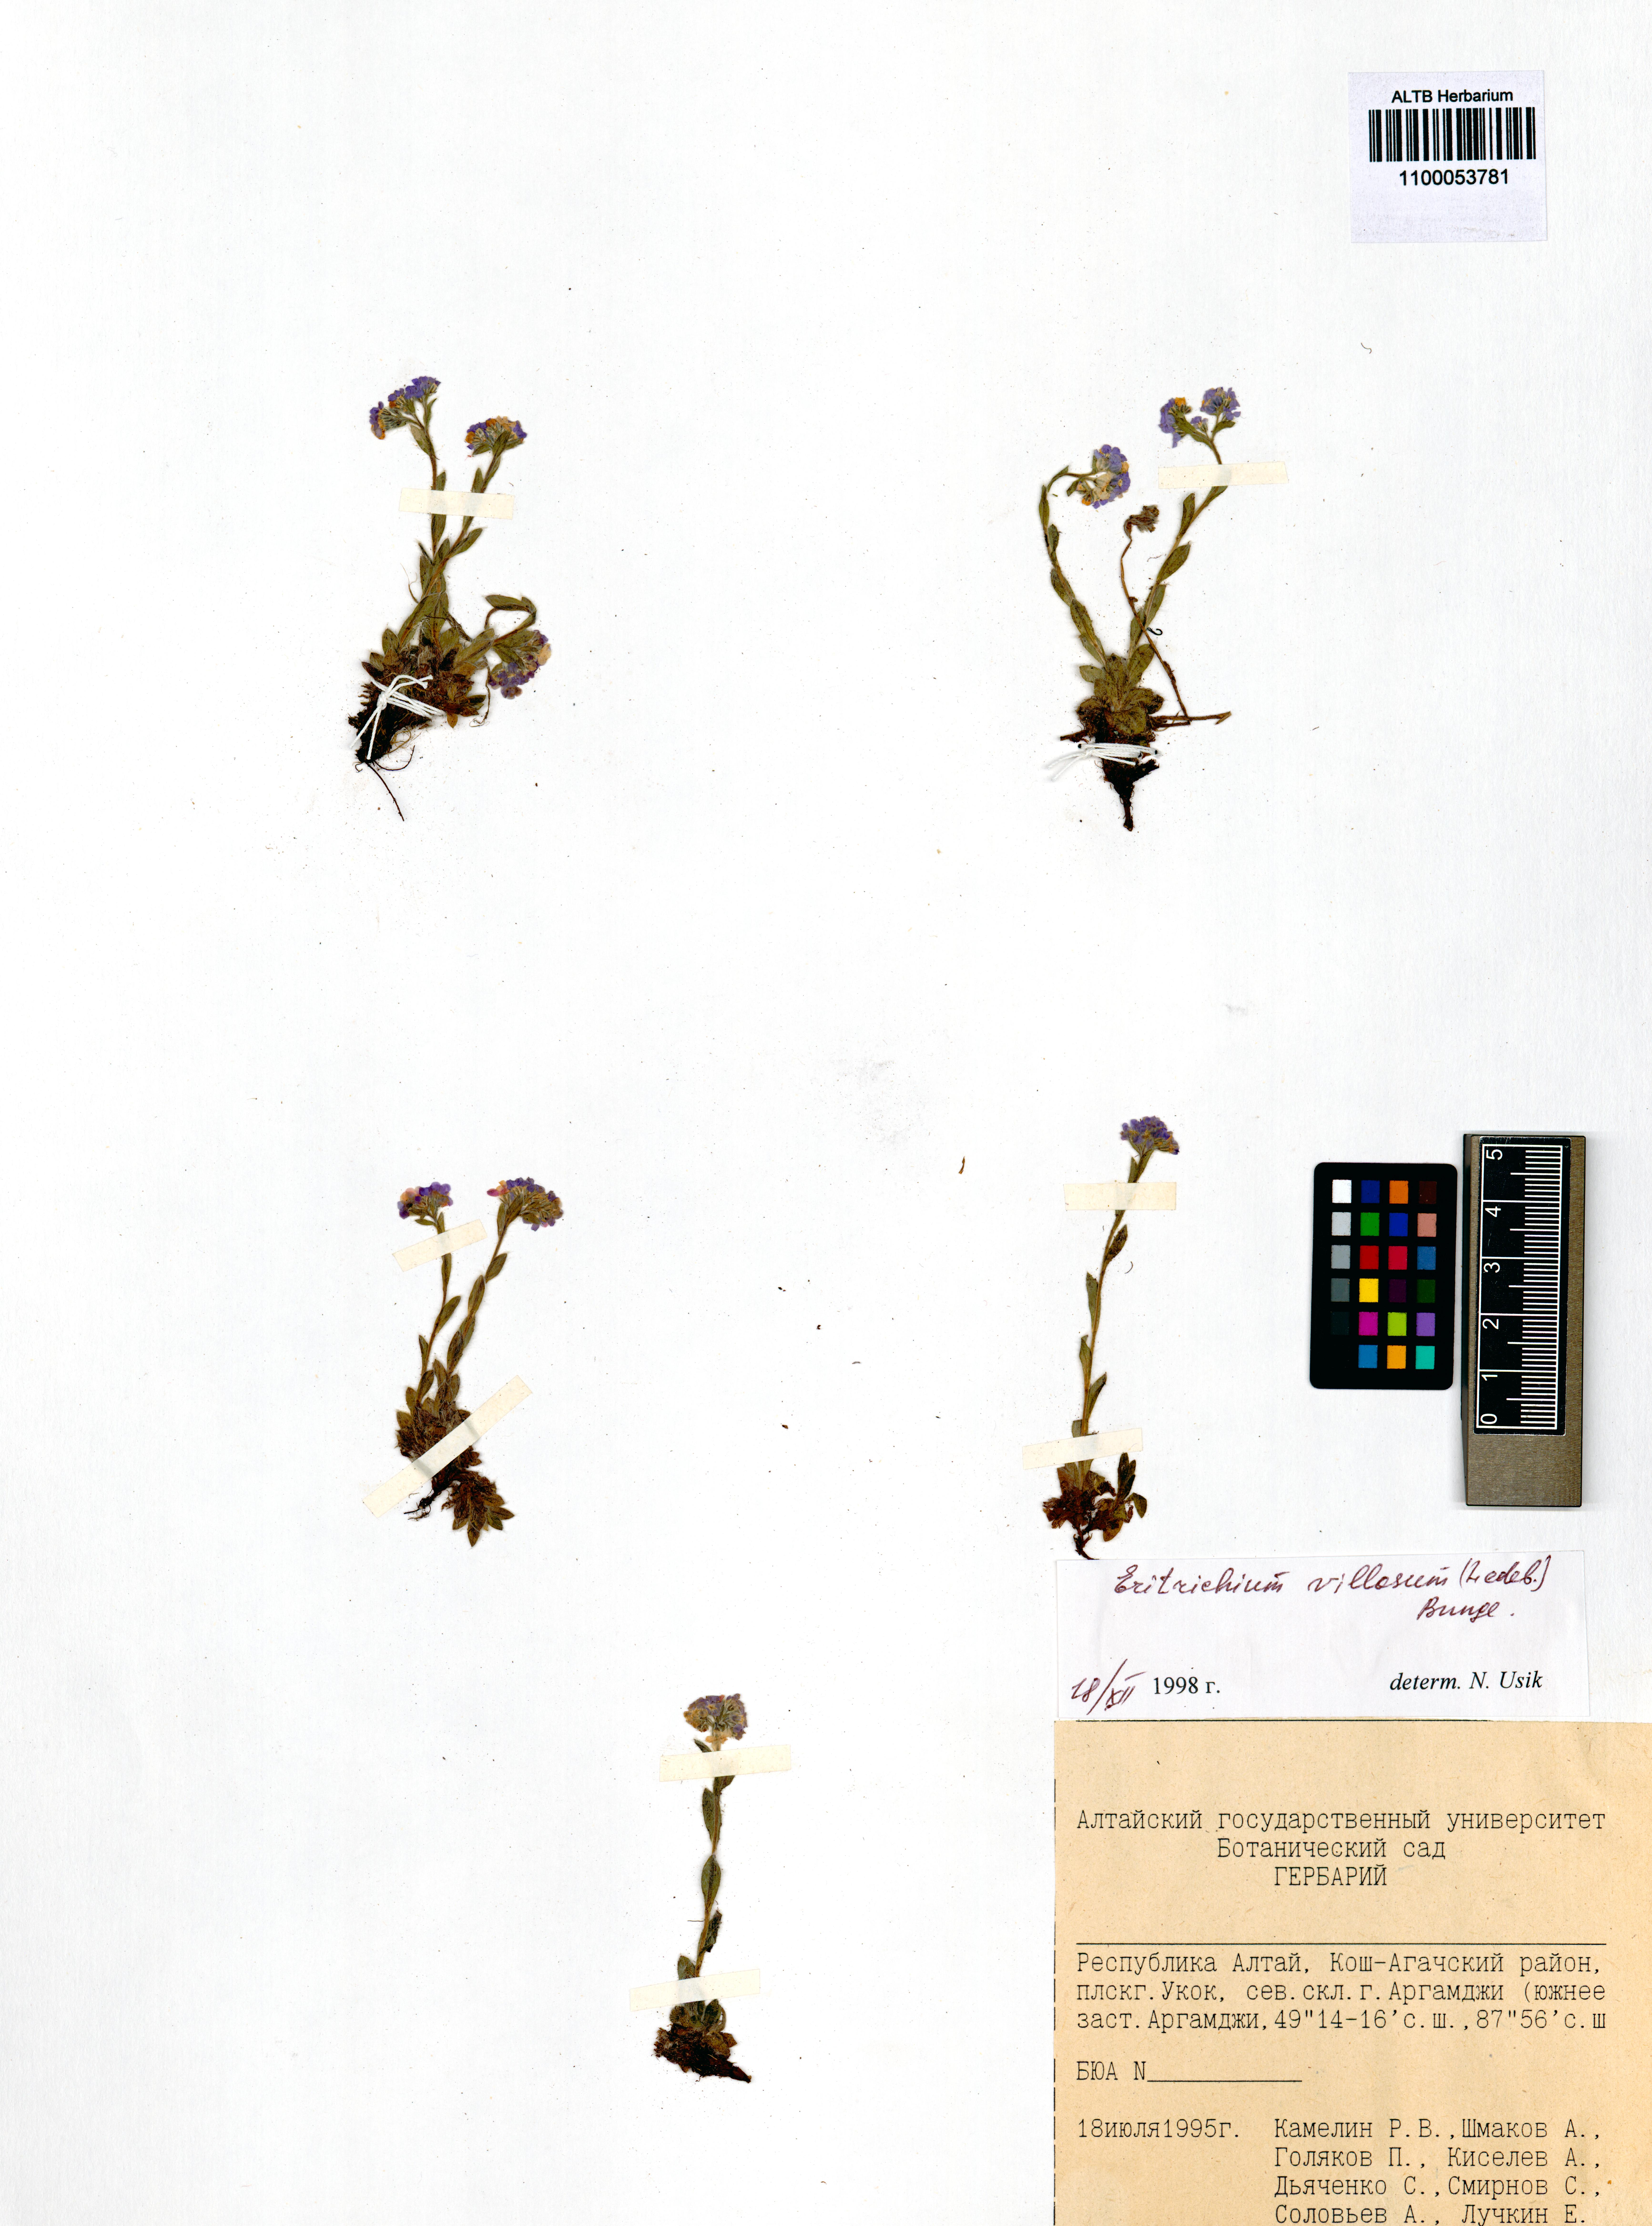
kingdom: Plantae
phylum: Tracheophyta
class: Magnoliopsida
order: Boraginales
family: Boraginaceae
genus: Eritrichium
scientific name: Eritrichium villosum
